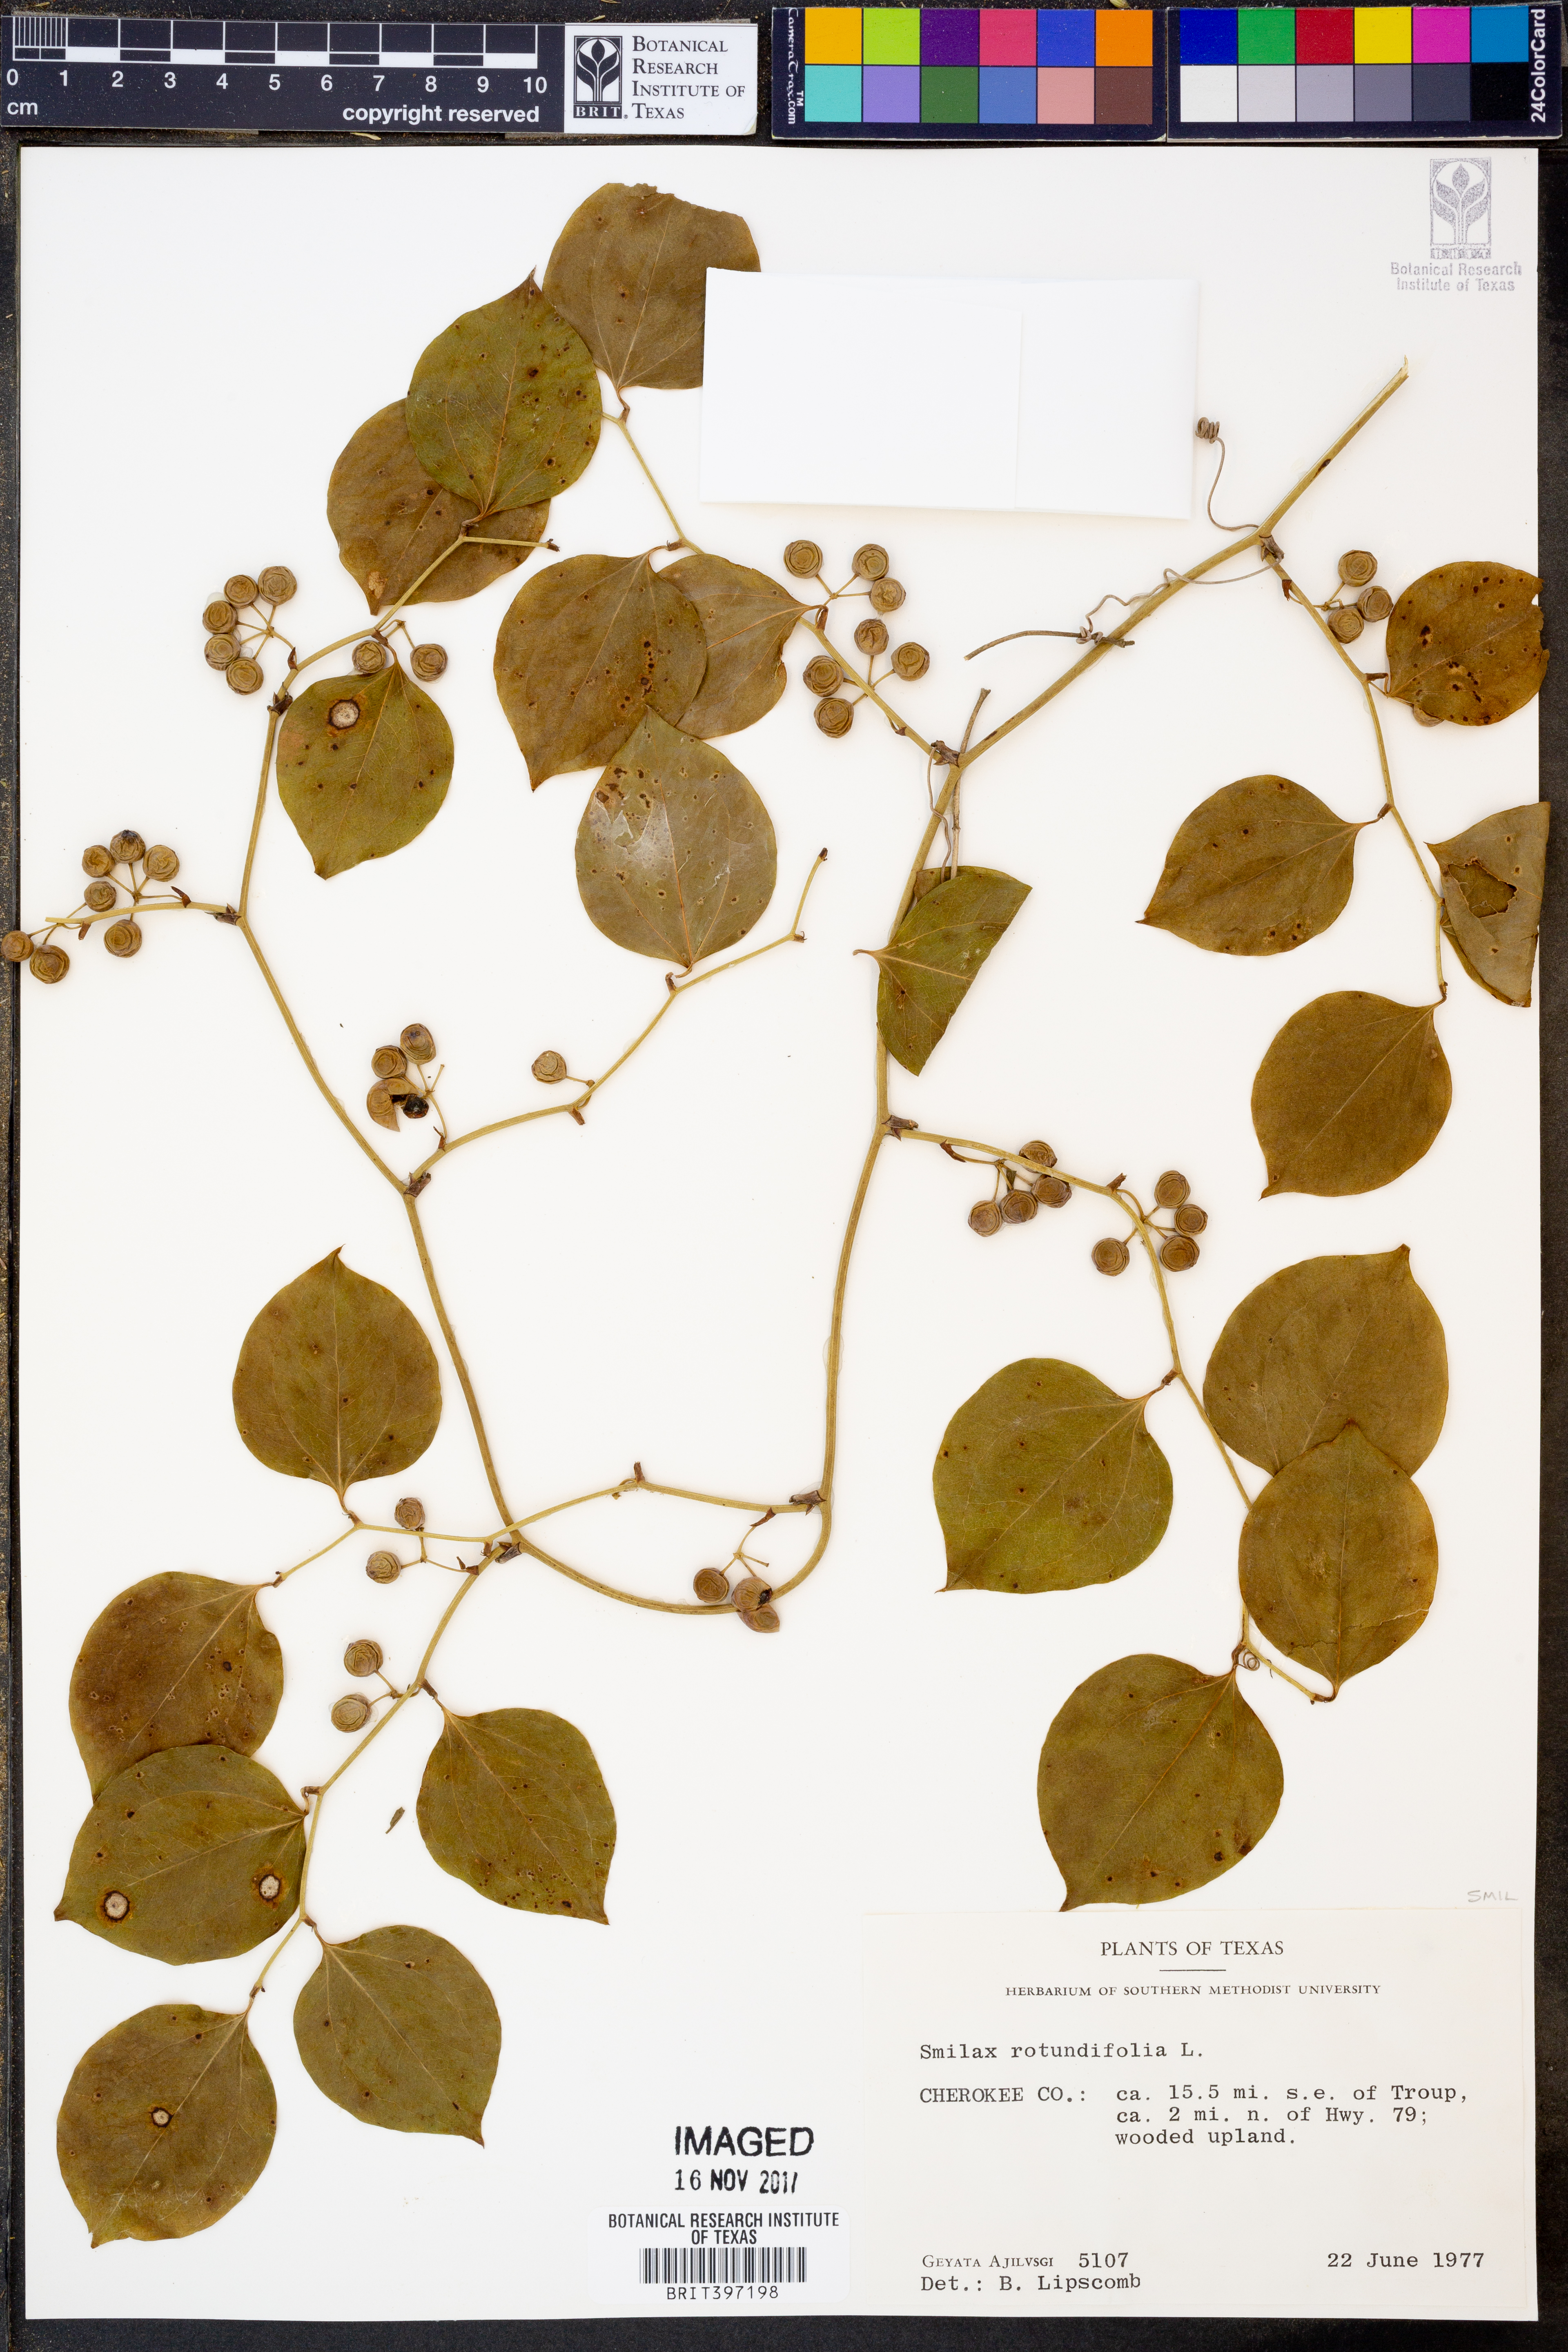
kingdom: Plantae
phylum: Tracheophyta
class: Liliopsida
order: Liliales
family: Smilacaceae
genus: Smilax
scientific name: Smilax rotundifolia
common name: Bullbriar
